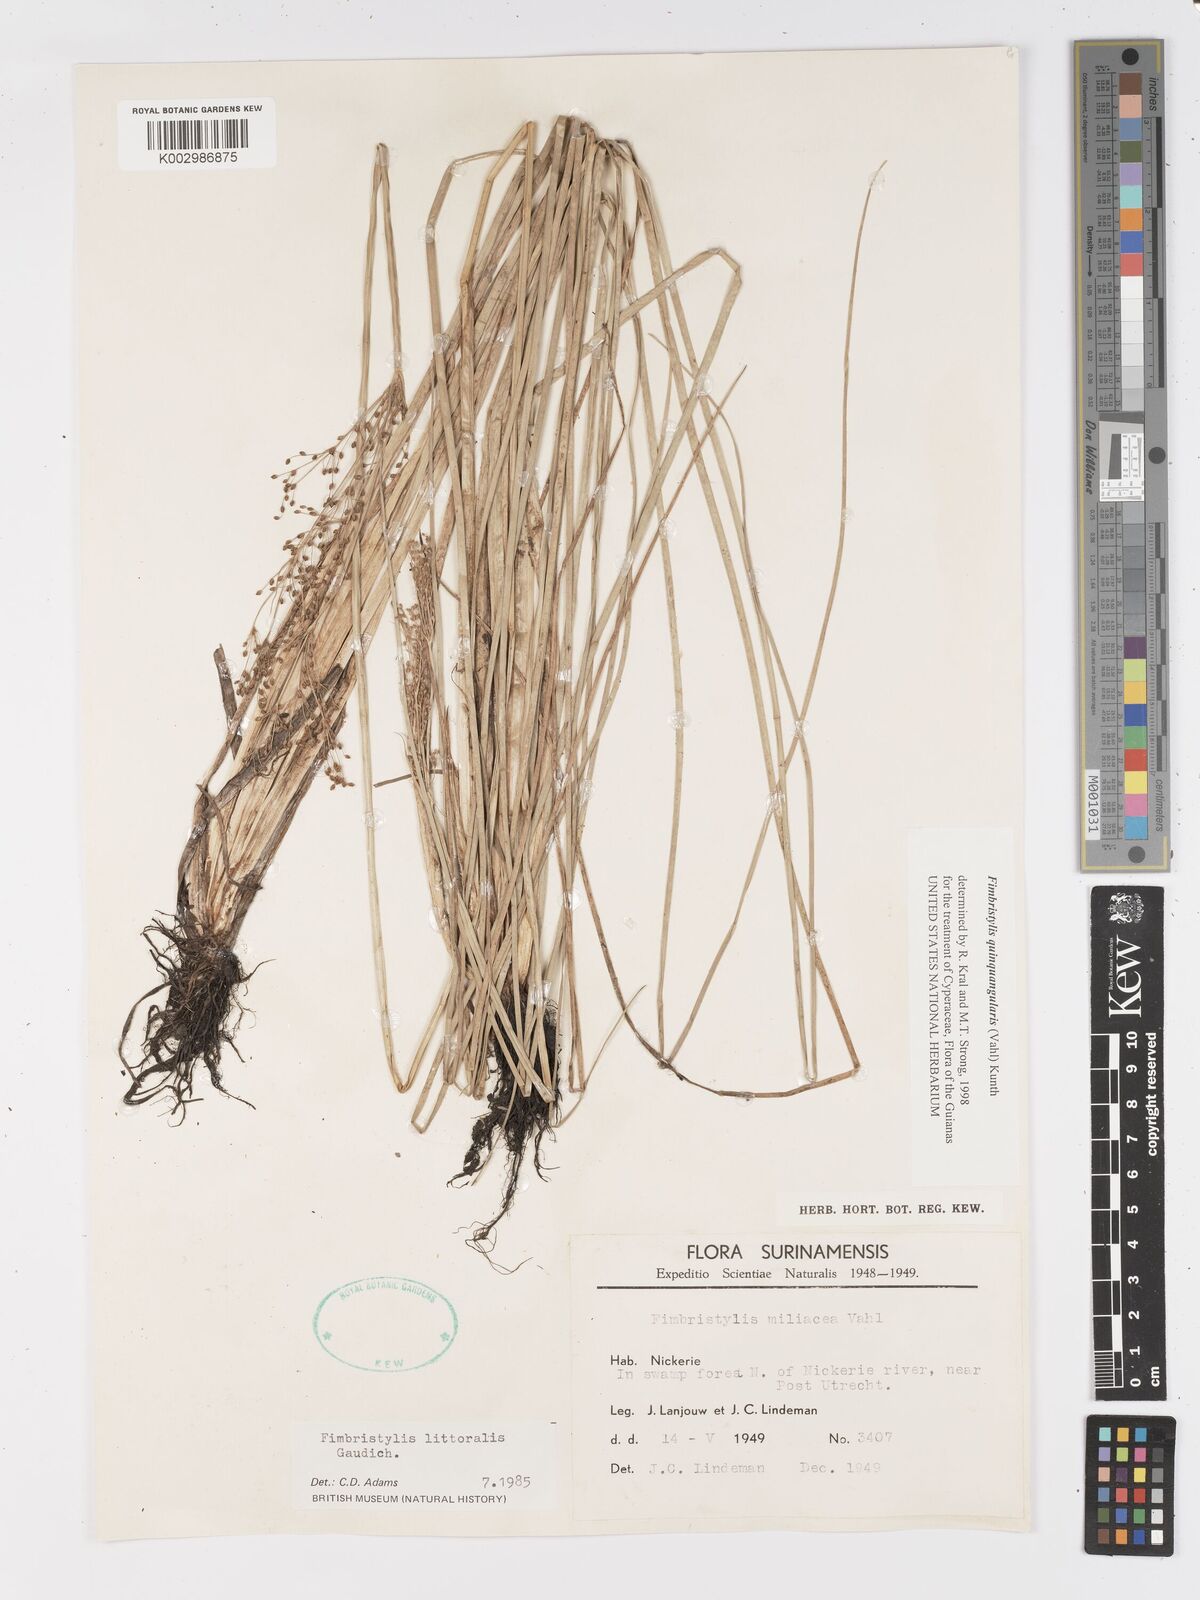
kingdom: Plantae
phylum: Tracheophyta
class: Liliopsida
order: Poales
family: Cyperaceae
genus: Fimbristylis
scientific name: Fimbristylis quinquangularis
